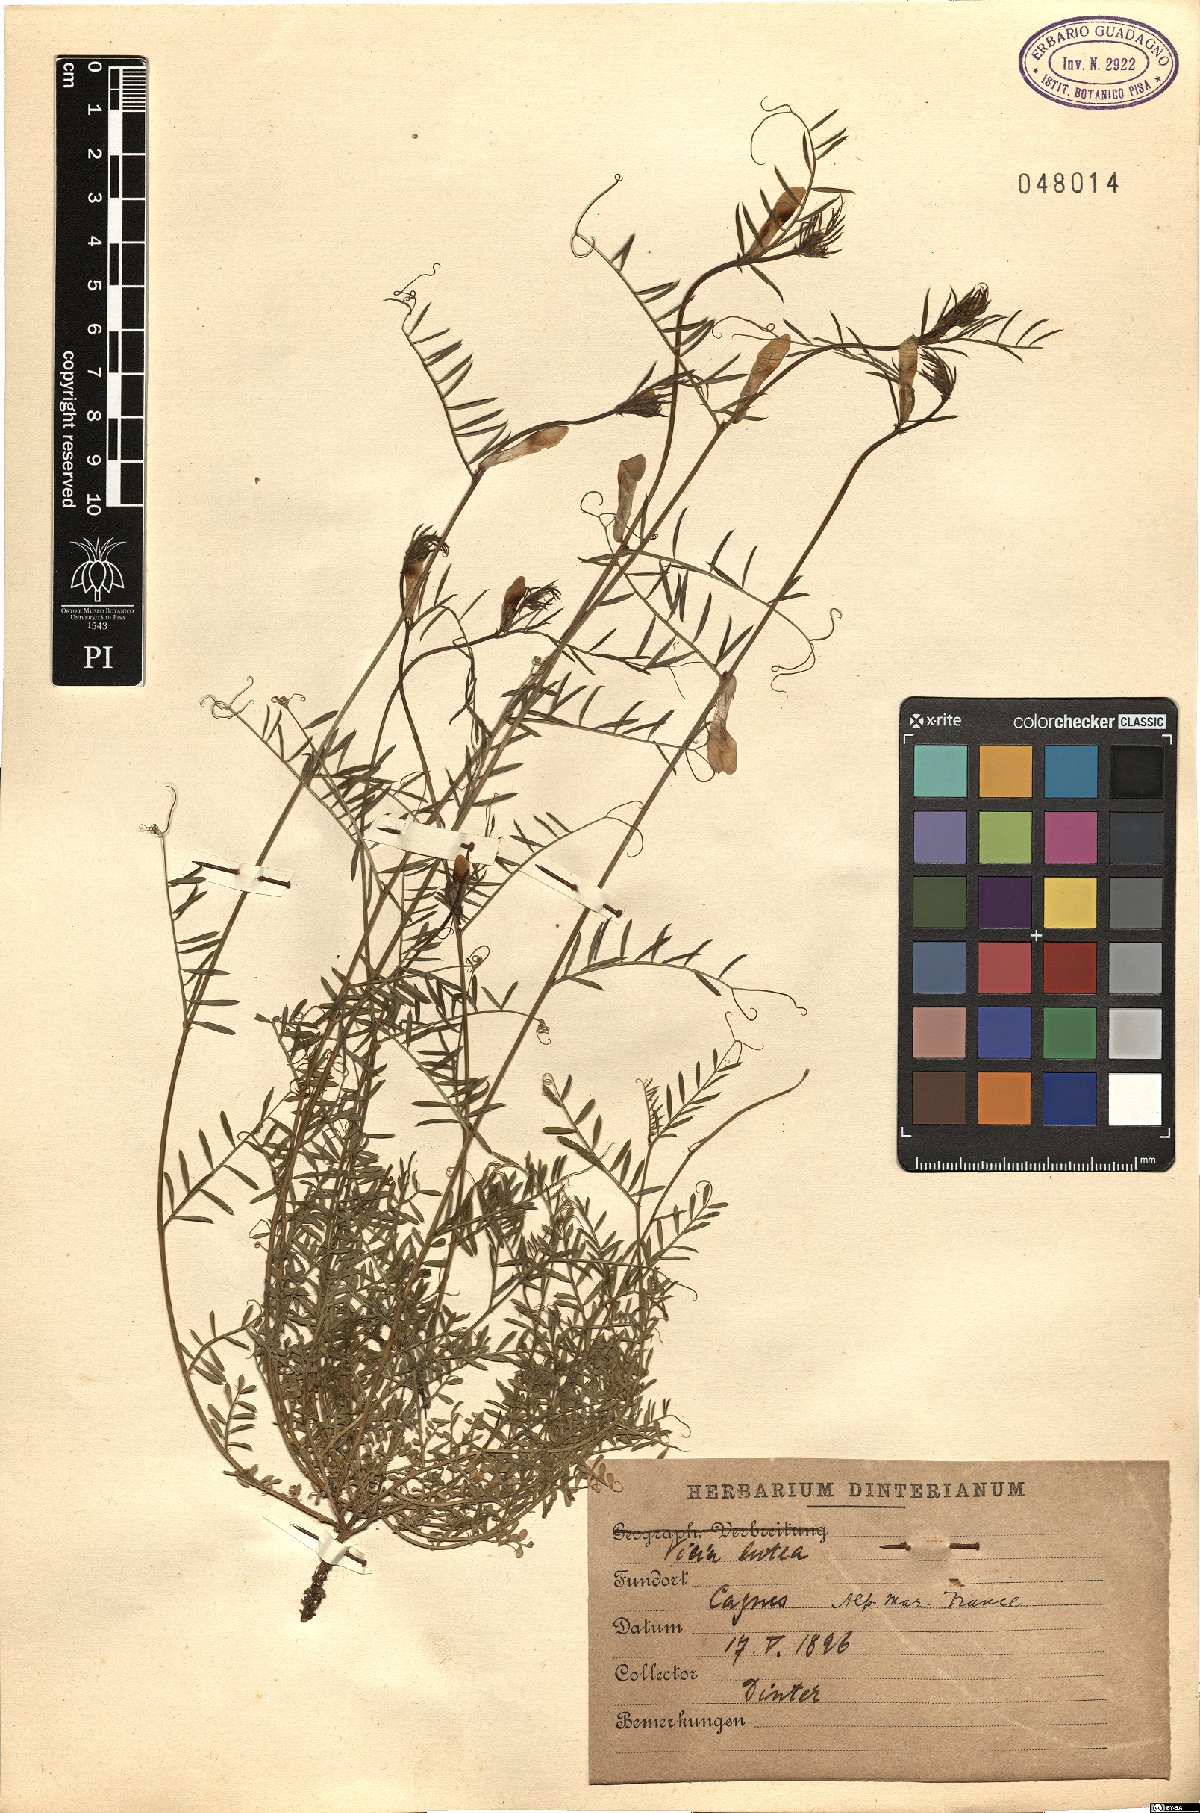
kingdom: Plantae
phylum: Tracheophyta
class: Magnoliopsida
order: Fabales
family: Fabaceae
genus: Vicia
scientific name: Vicia lutea
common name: Smooth yellow vetch
